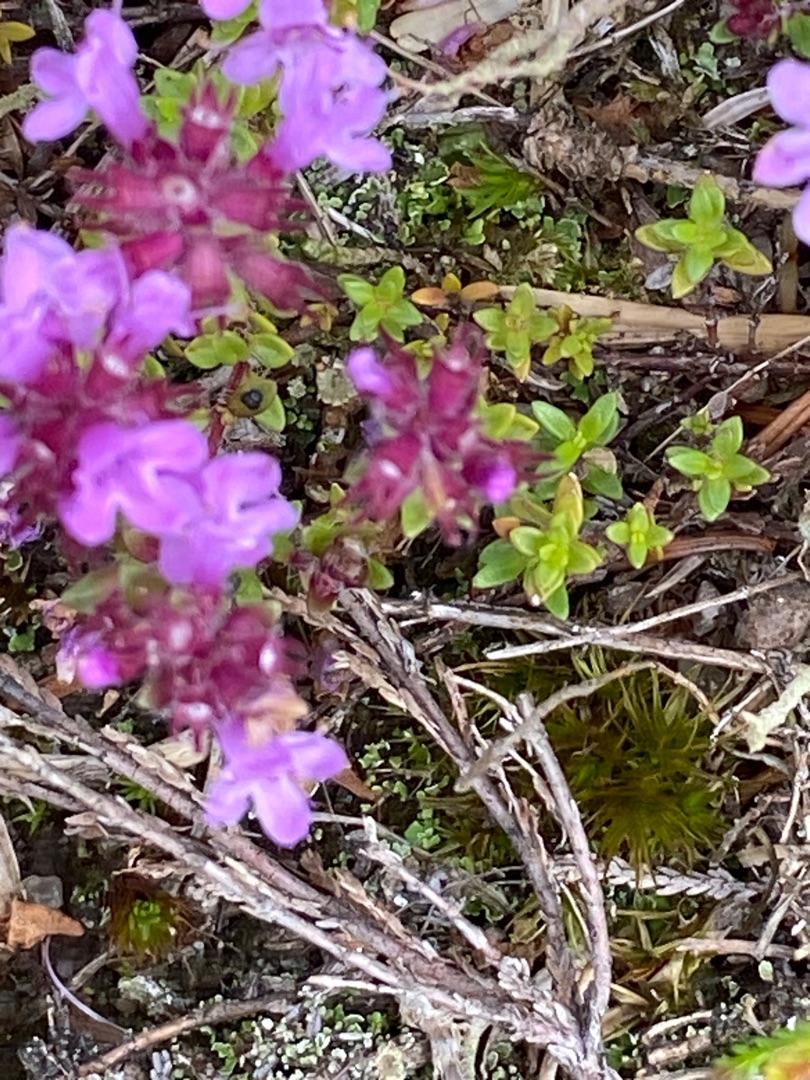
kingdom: Plantae
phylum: Tracheophyta
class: Magnoliopsida
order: Lamiales
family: Lamiaceae
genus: Thymus
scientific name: Thymus serpyllum
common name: Smalbladet timian
